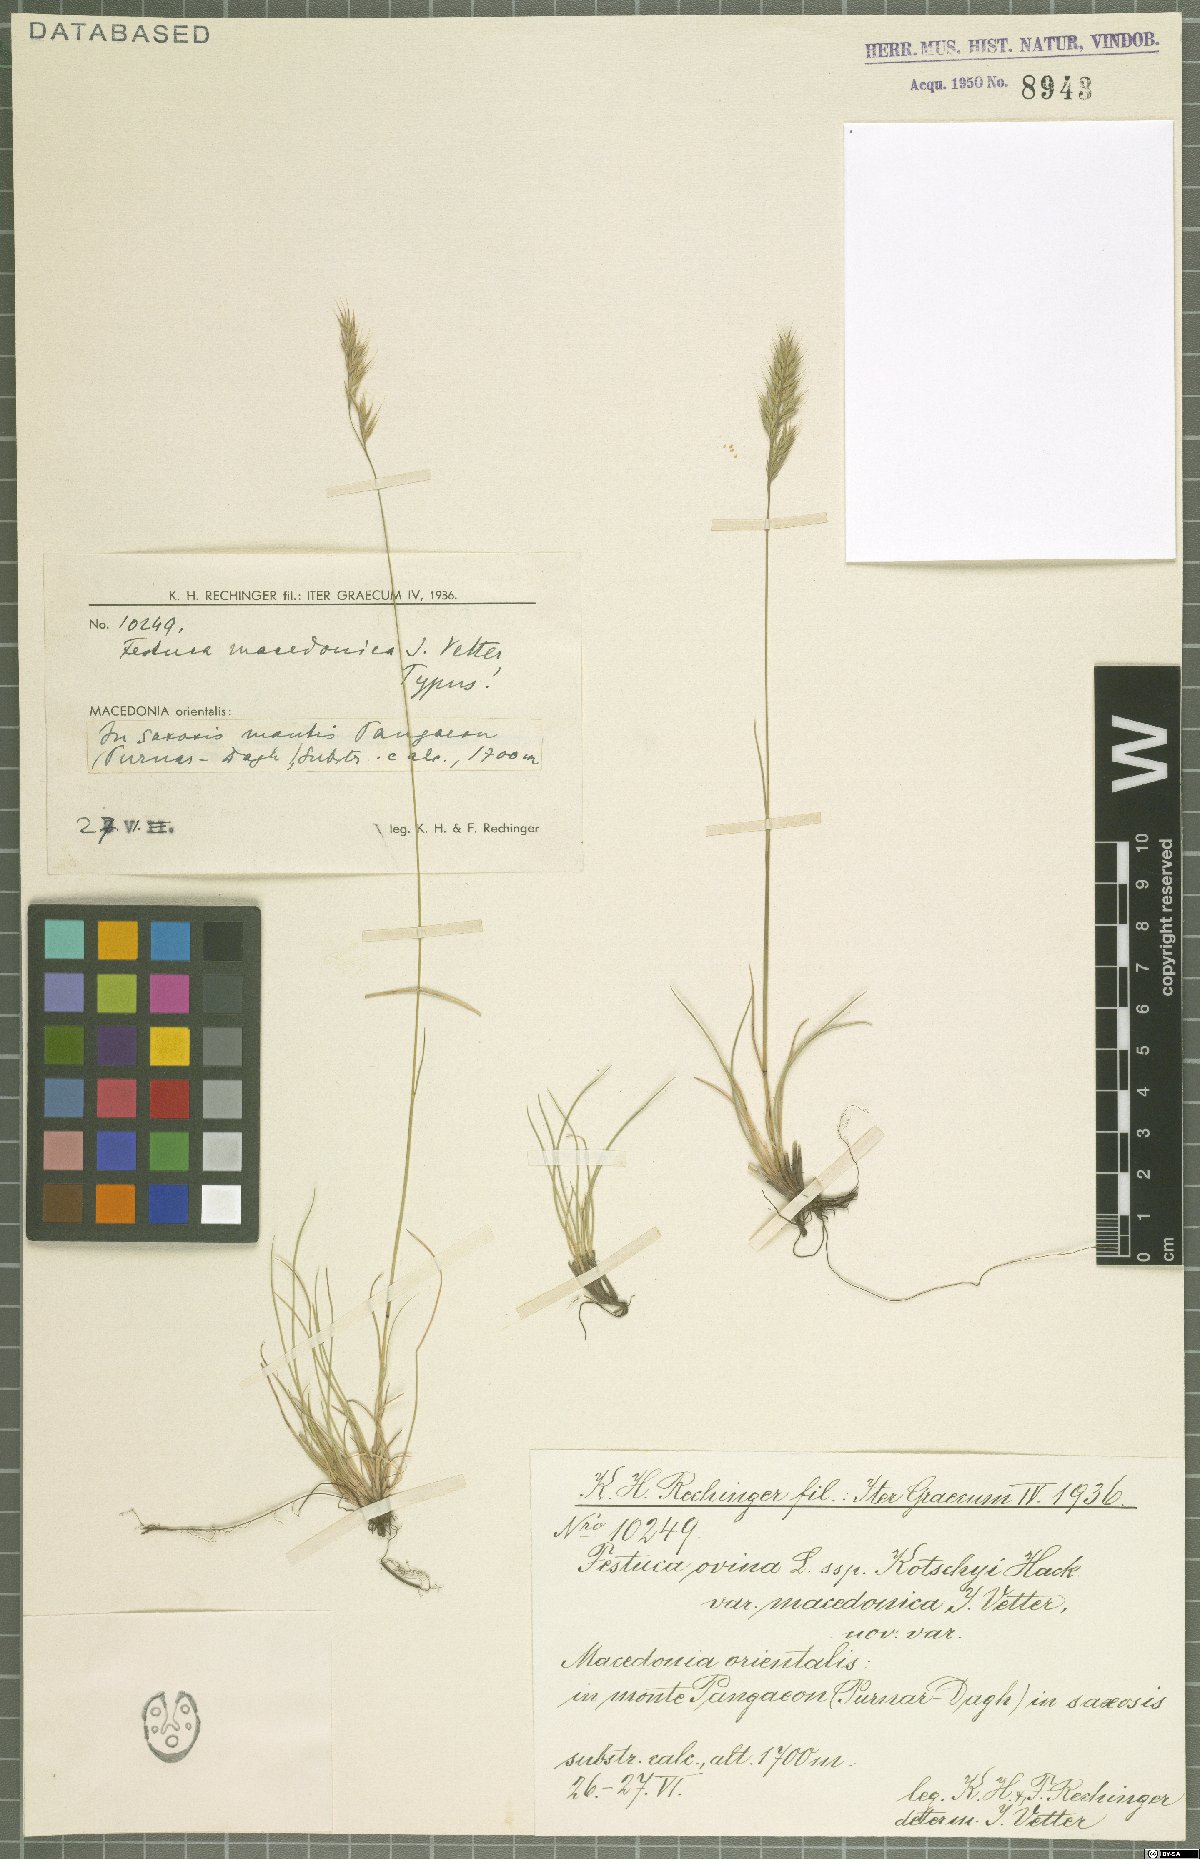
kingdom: Plantae
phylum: Tracheophyta
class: Liliopsida
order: Poales
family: Poaceae
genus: Festuca
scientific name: Festuca macedonica
